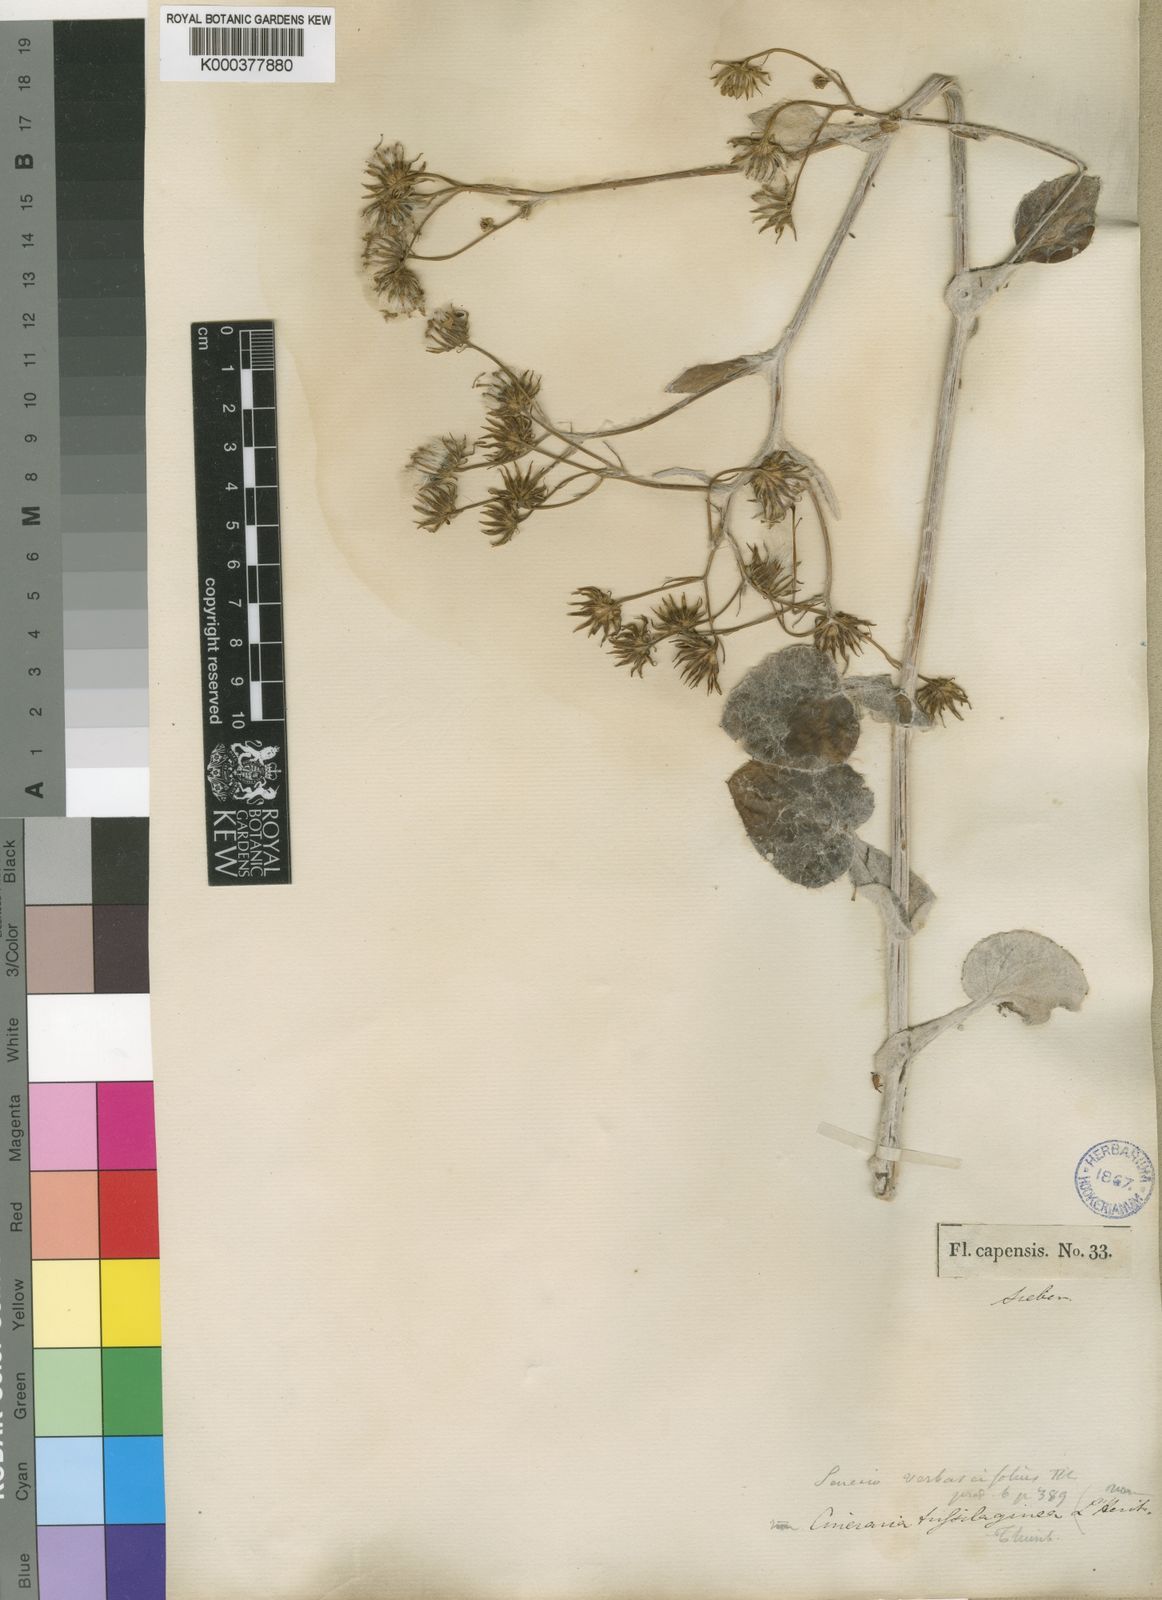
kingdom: Plantae
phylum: Tracheophyta
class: Magnoliopsida
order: Asterales
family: Asteraceae
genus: Senecio
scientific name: Senecio
